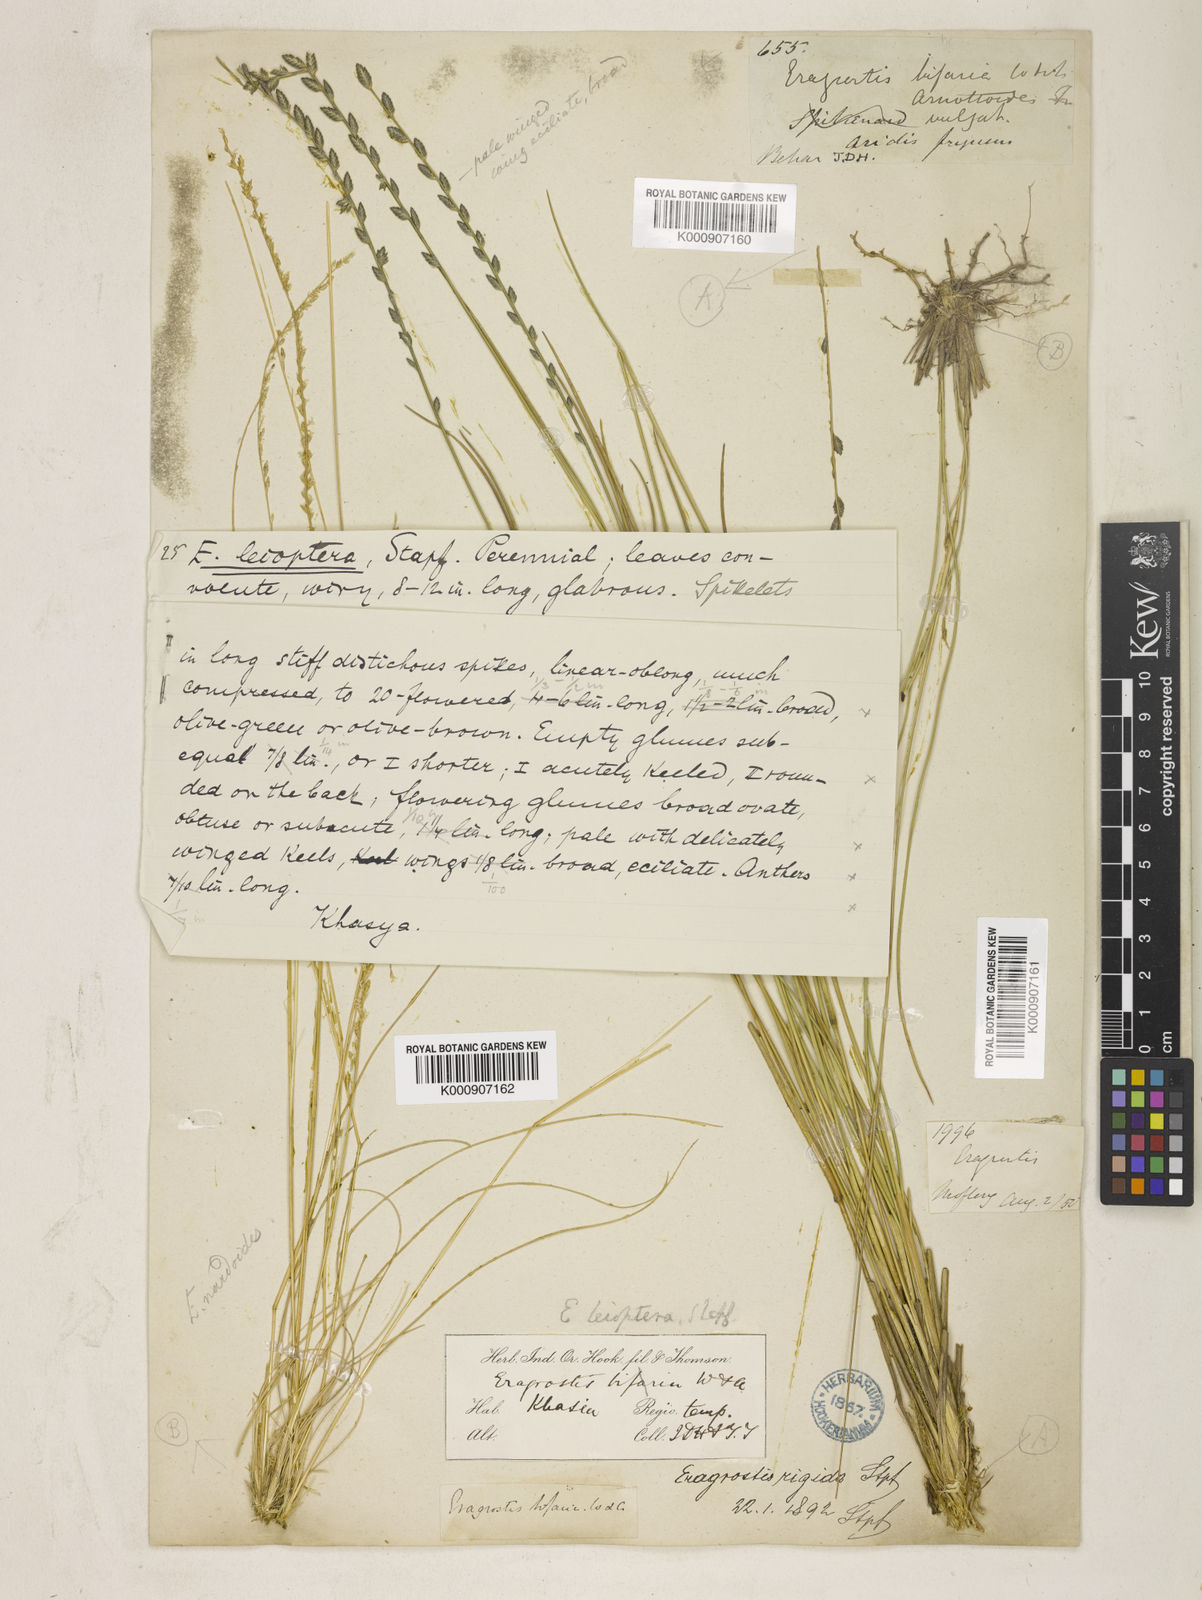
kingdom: Plantae
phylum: Tracheophyta
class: Liliopsida
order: Poales
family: Poaceae
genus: Eragrostiella
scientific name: Eragrostiella leioptera
